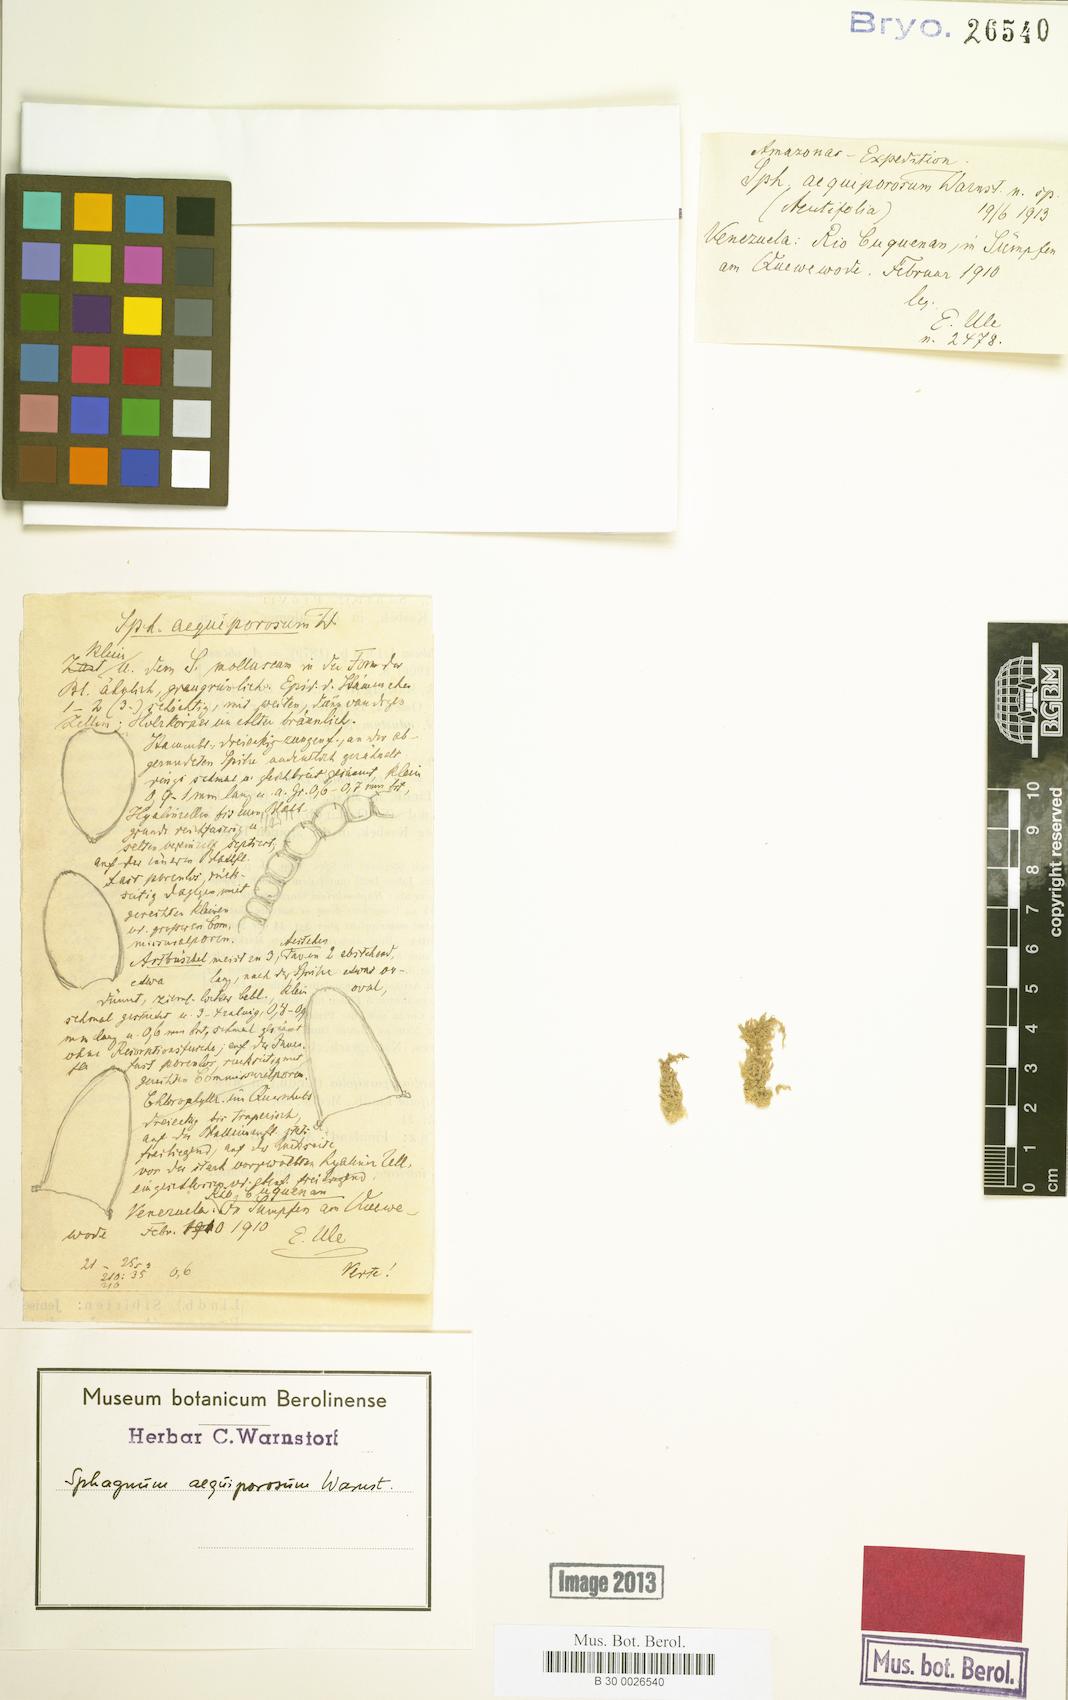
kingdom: Plantae
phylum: Bryophyta
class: Sphagnopsida
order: Sphagnales
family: Sphagnaceae
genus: Sphagnum
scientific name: Sphagnum aequiporosum
